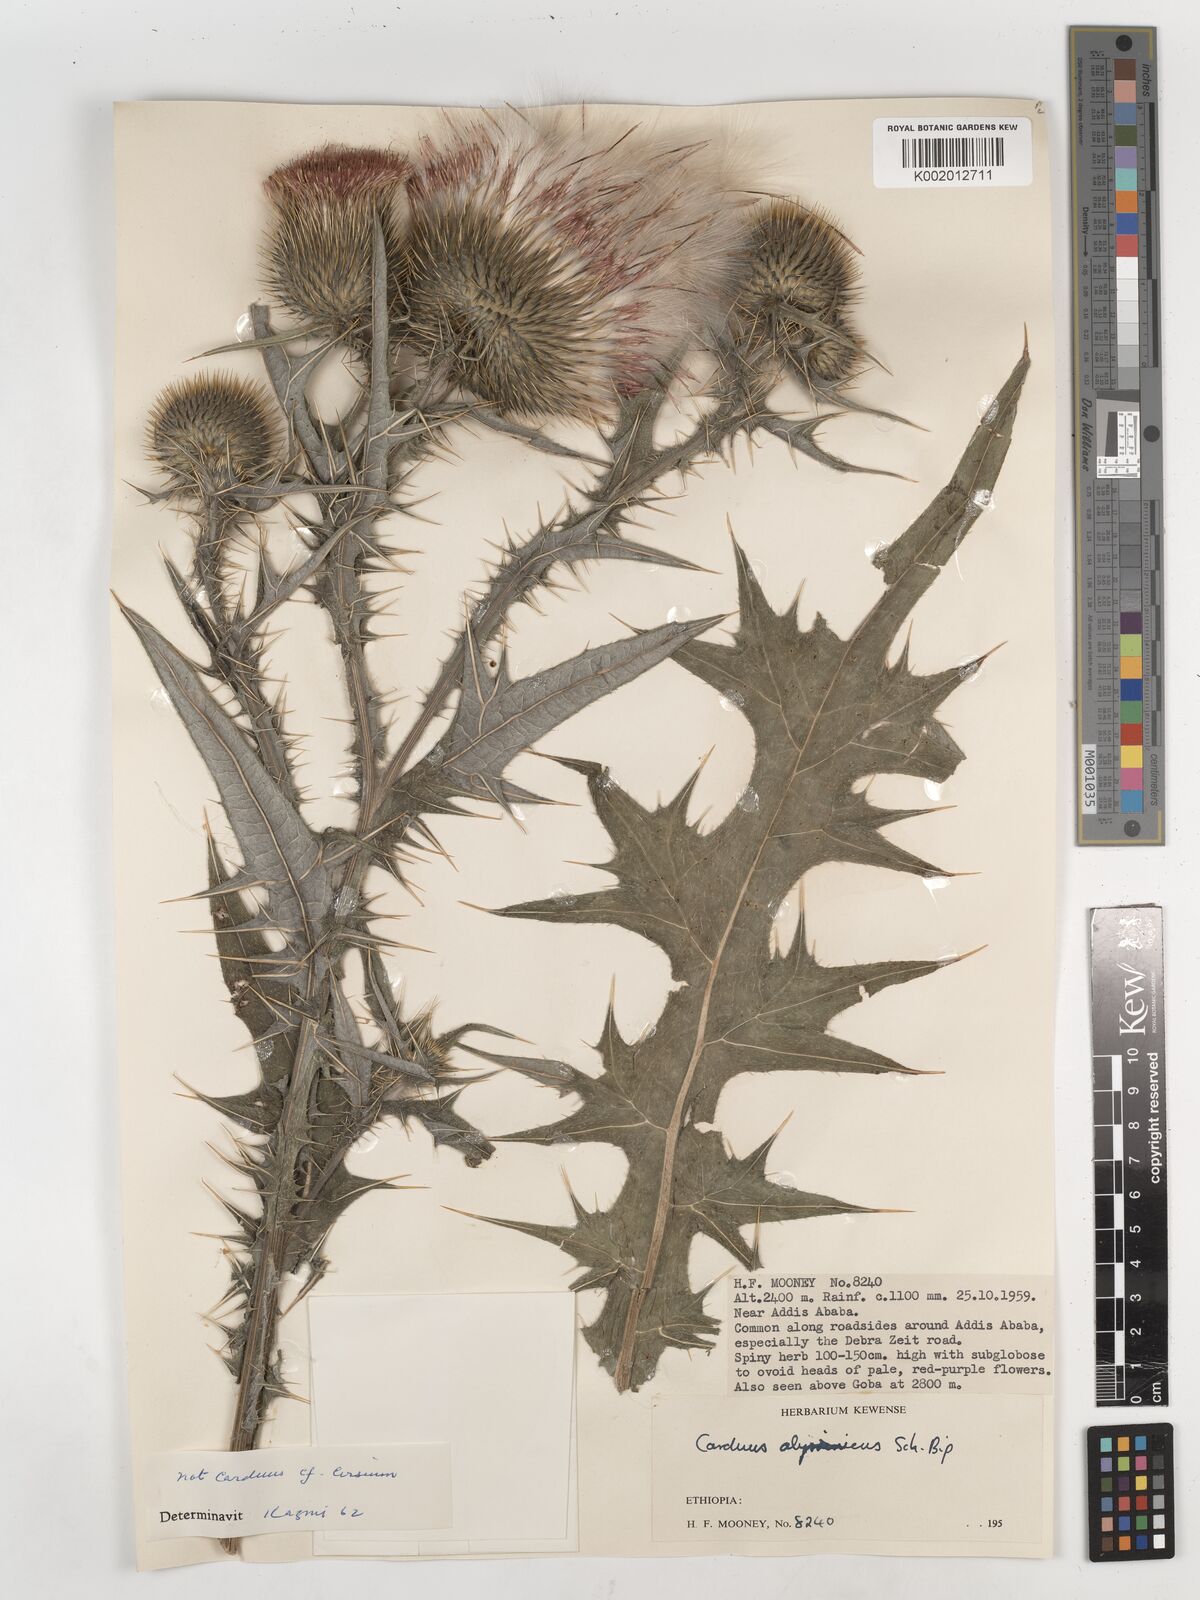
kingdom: Plantae
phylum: Tracheophyta
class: Magnoliopsida
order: Asterales
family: Asteraceae
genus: Cirsium
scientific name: Cirsium vulgare
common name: Bull thistle
